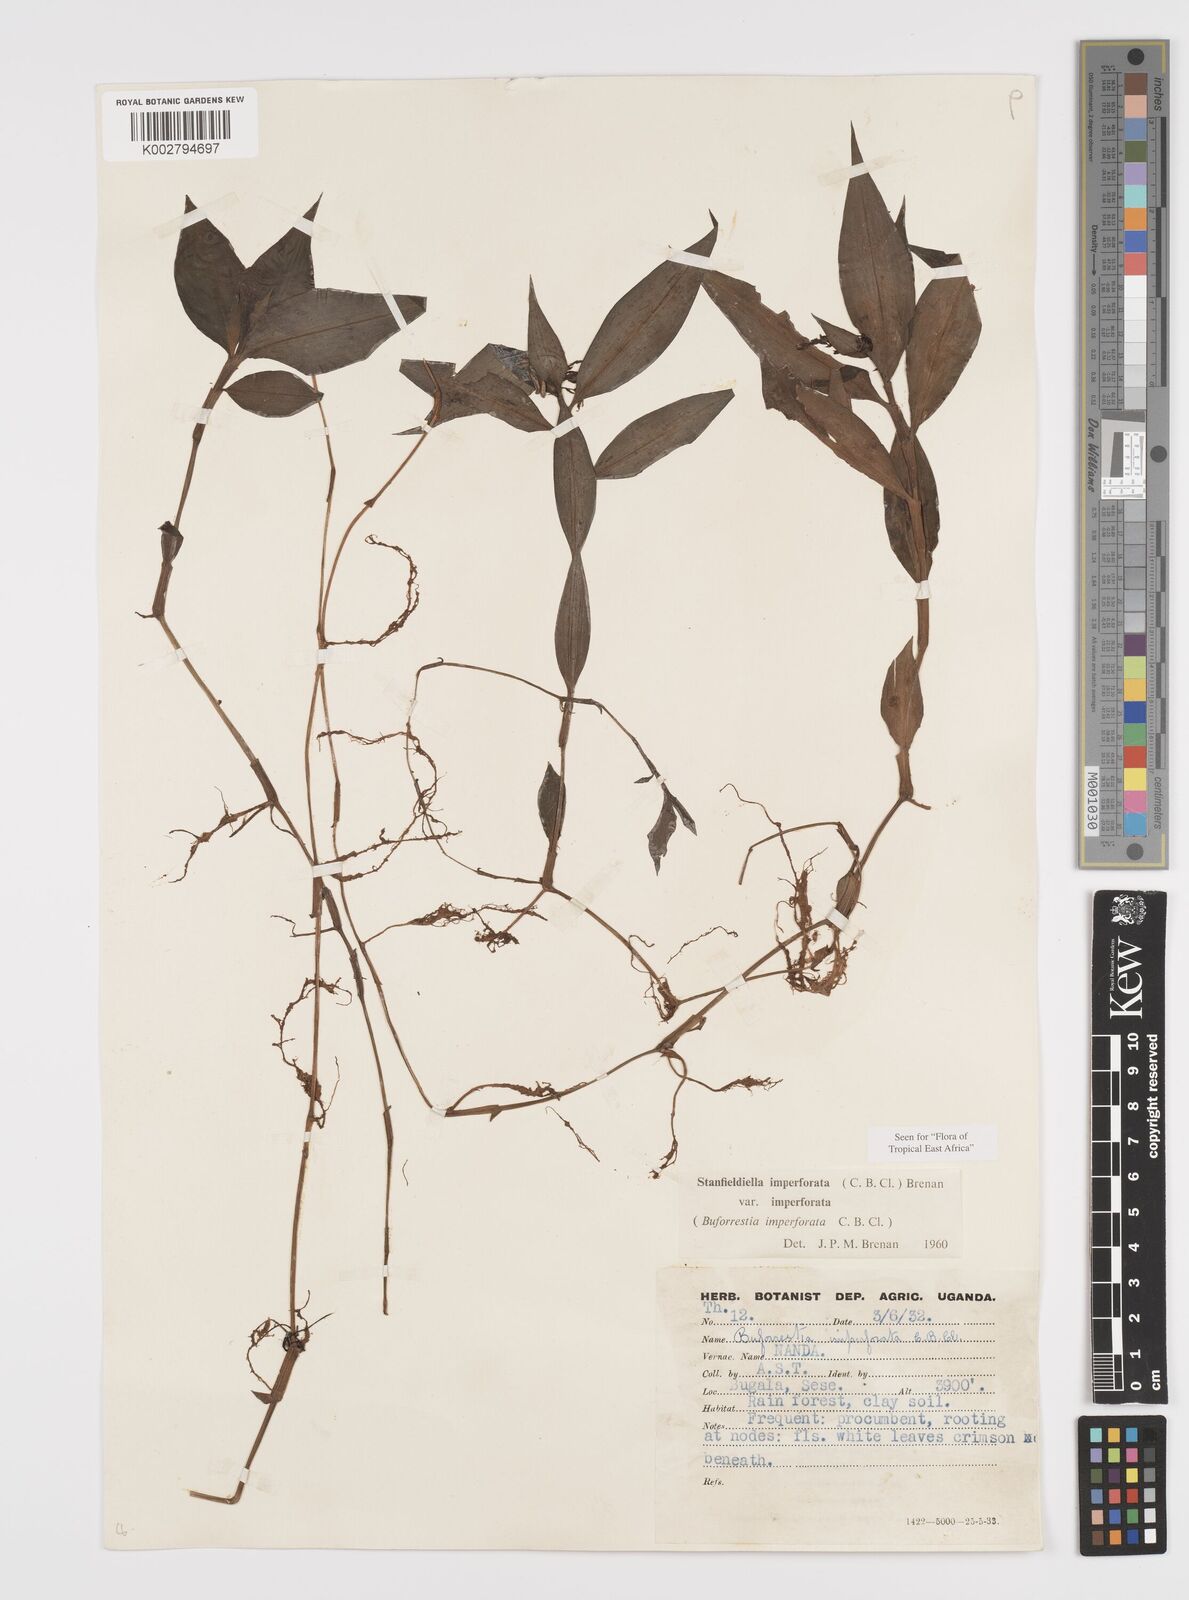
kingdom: Plantae
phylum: Tracheophyta
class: Liliopsida
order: Commelinales
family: Commelinaceae
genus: Stanfieldiella
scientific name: Stanfieldiella imperforata
